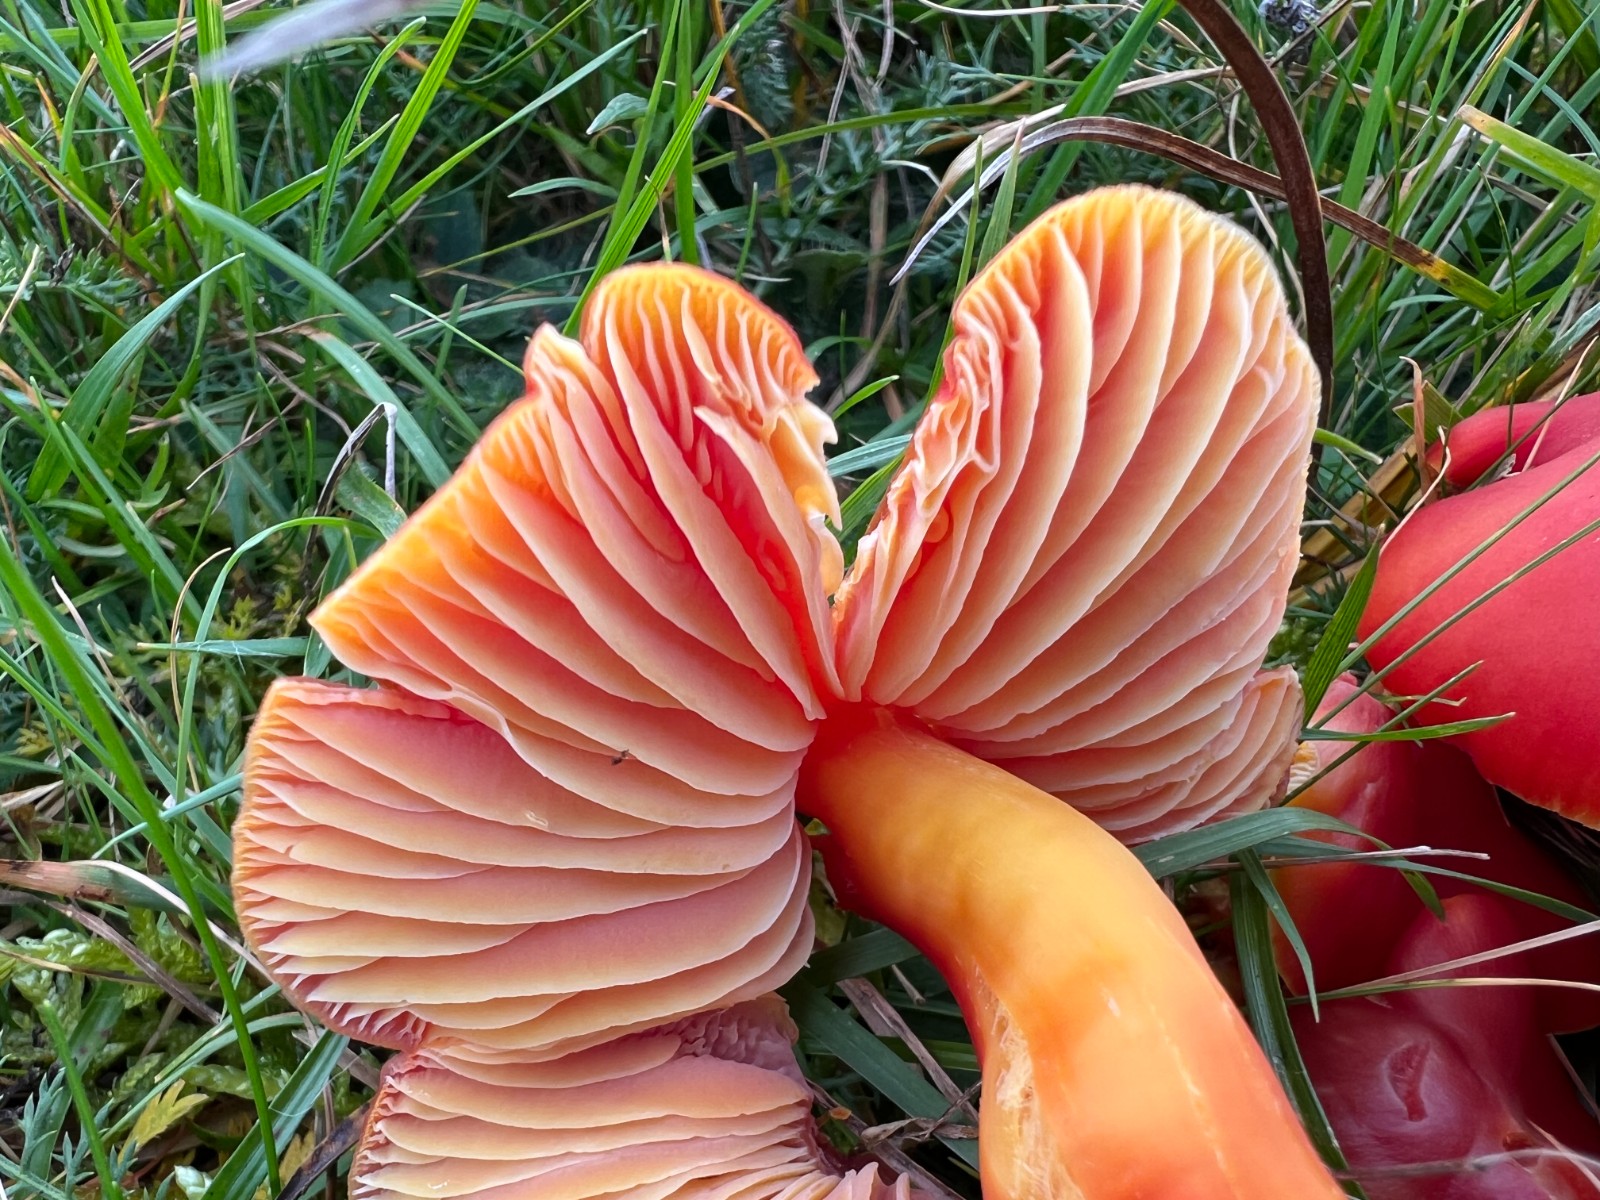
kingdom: Fungi
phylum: Basidiomycota
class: Agaricomycetes
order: Agaricales
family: Hygrophoraceae
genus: Hygrocybe
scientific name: Hygrocybe splendidissima
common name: knaldrød vokshat
